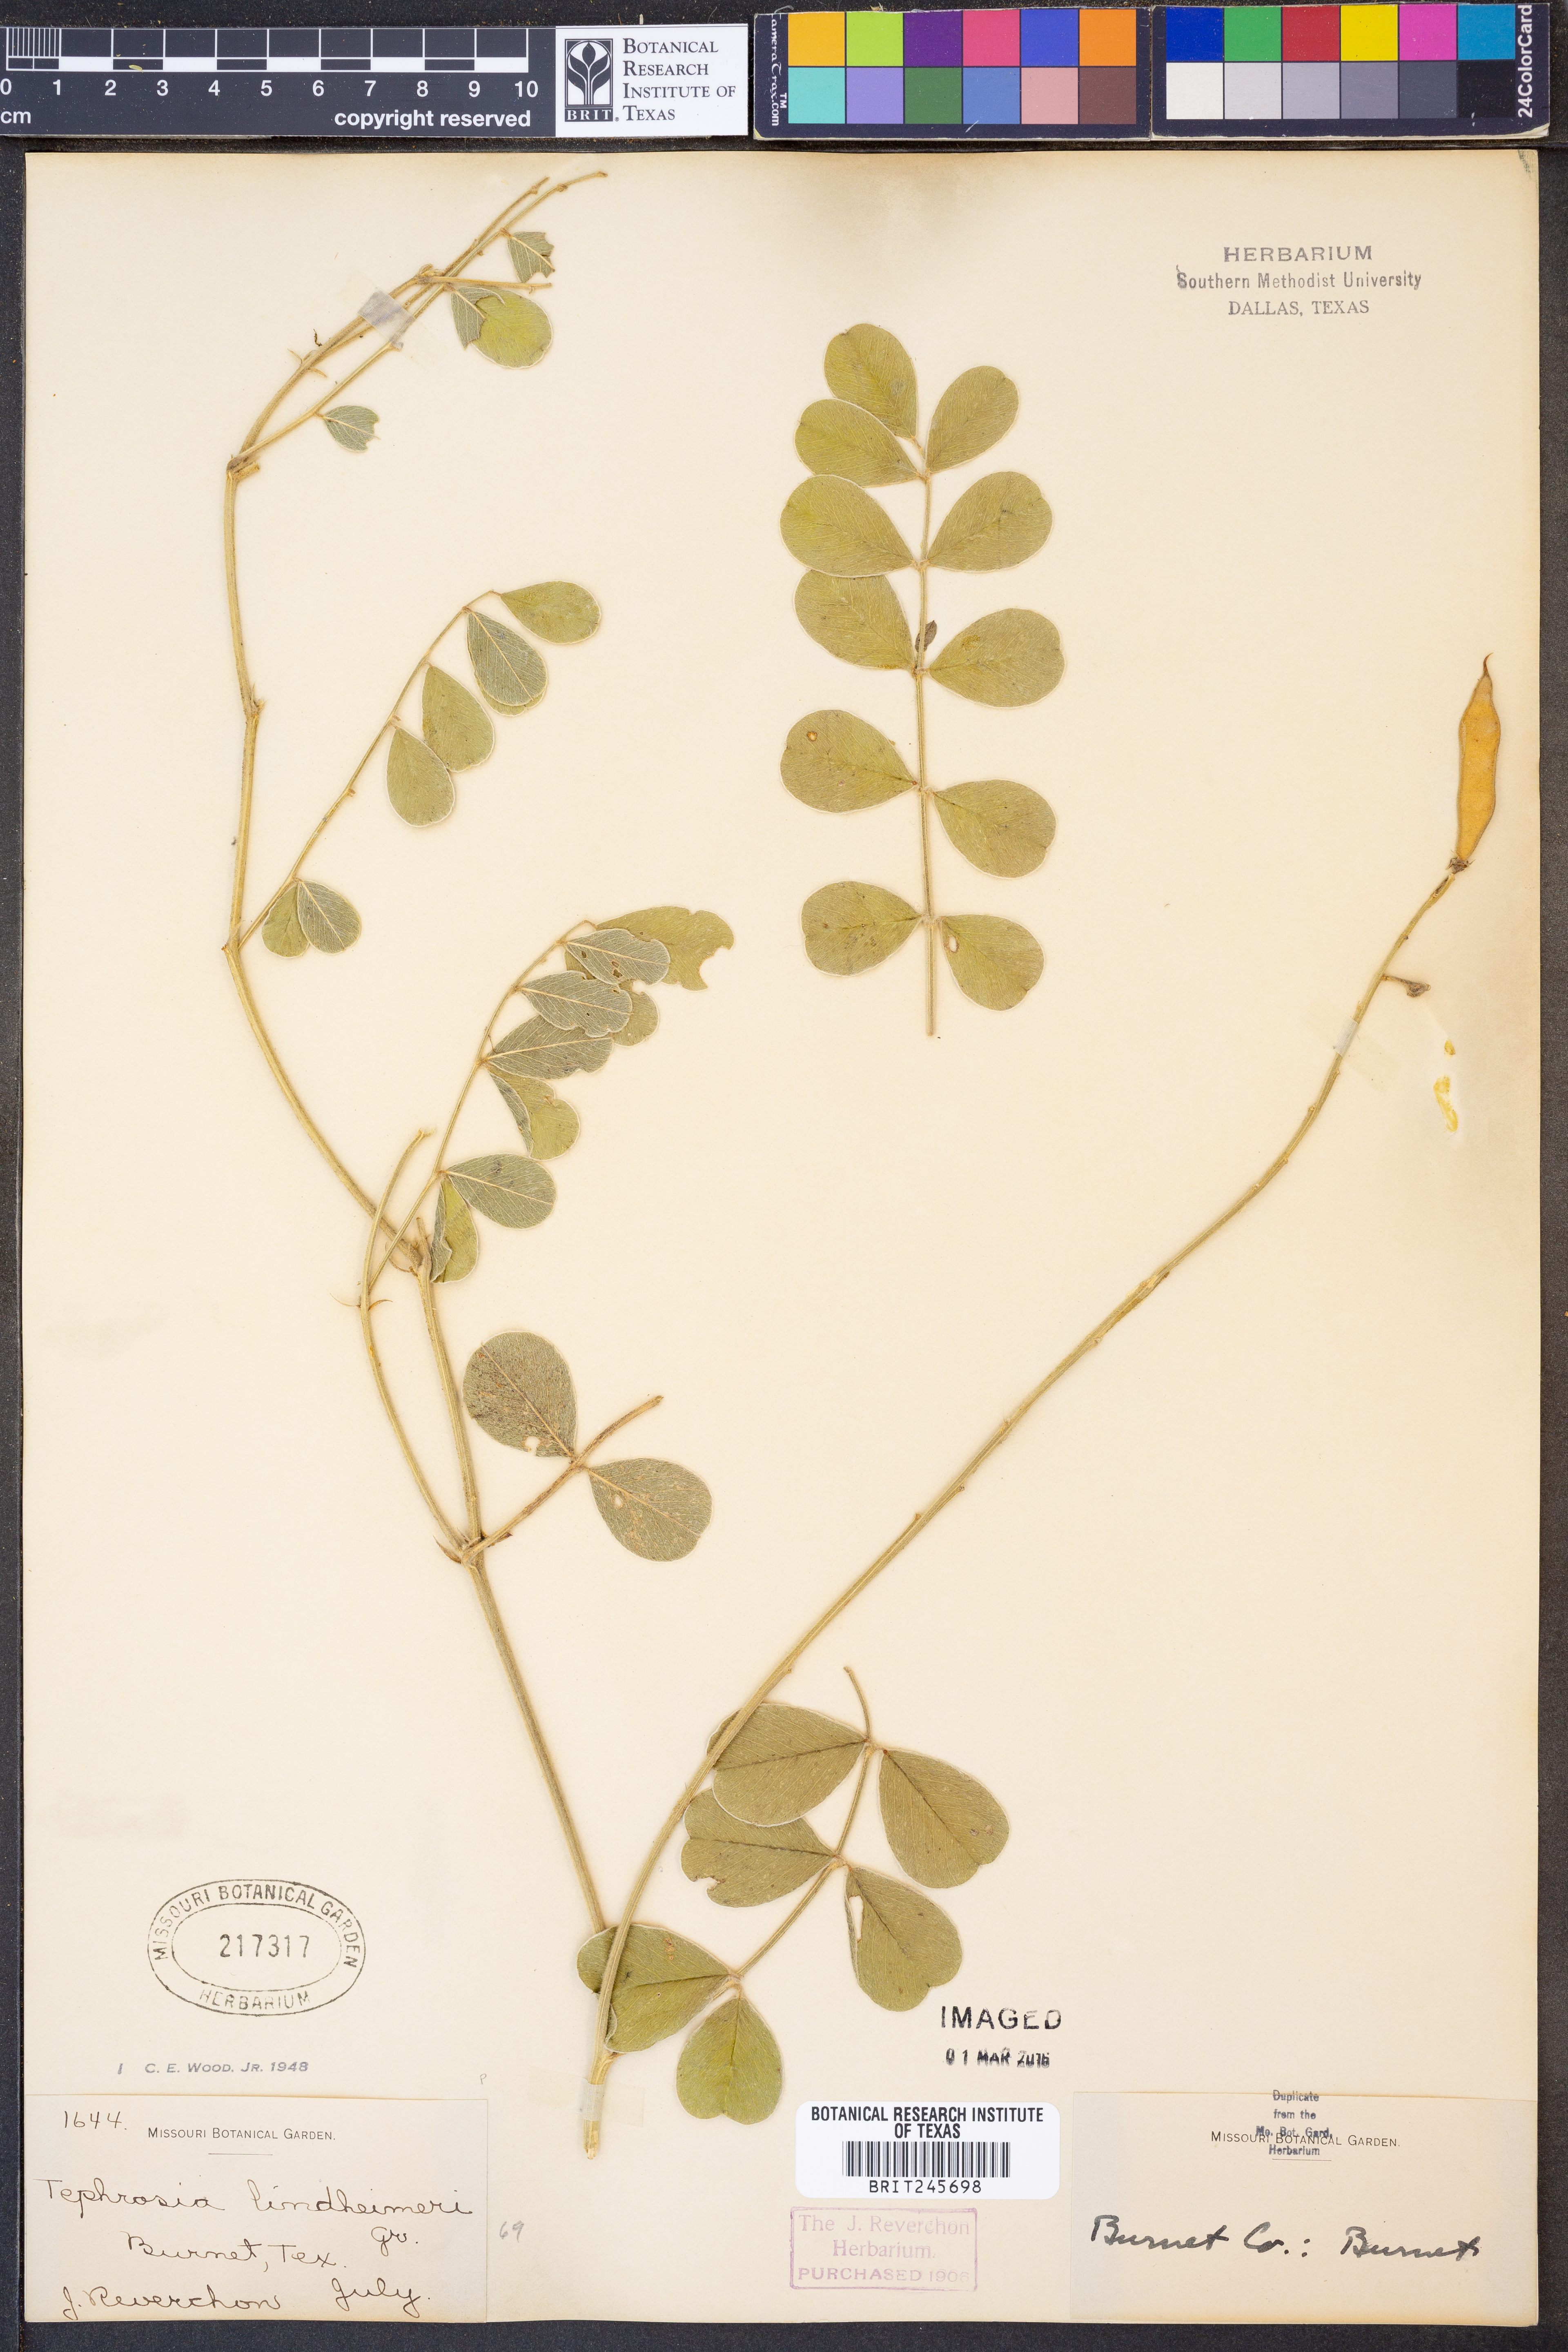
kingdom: Plantae
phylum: Tracheophyta
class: Magnoliopsida
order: Fabales
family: Fabaceae
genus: Tephrosia
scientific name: Tephrosia lindheimeri
